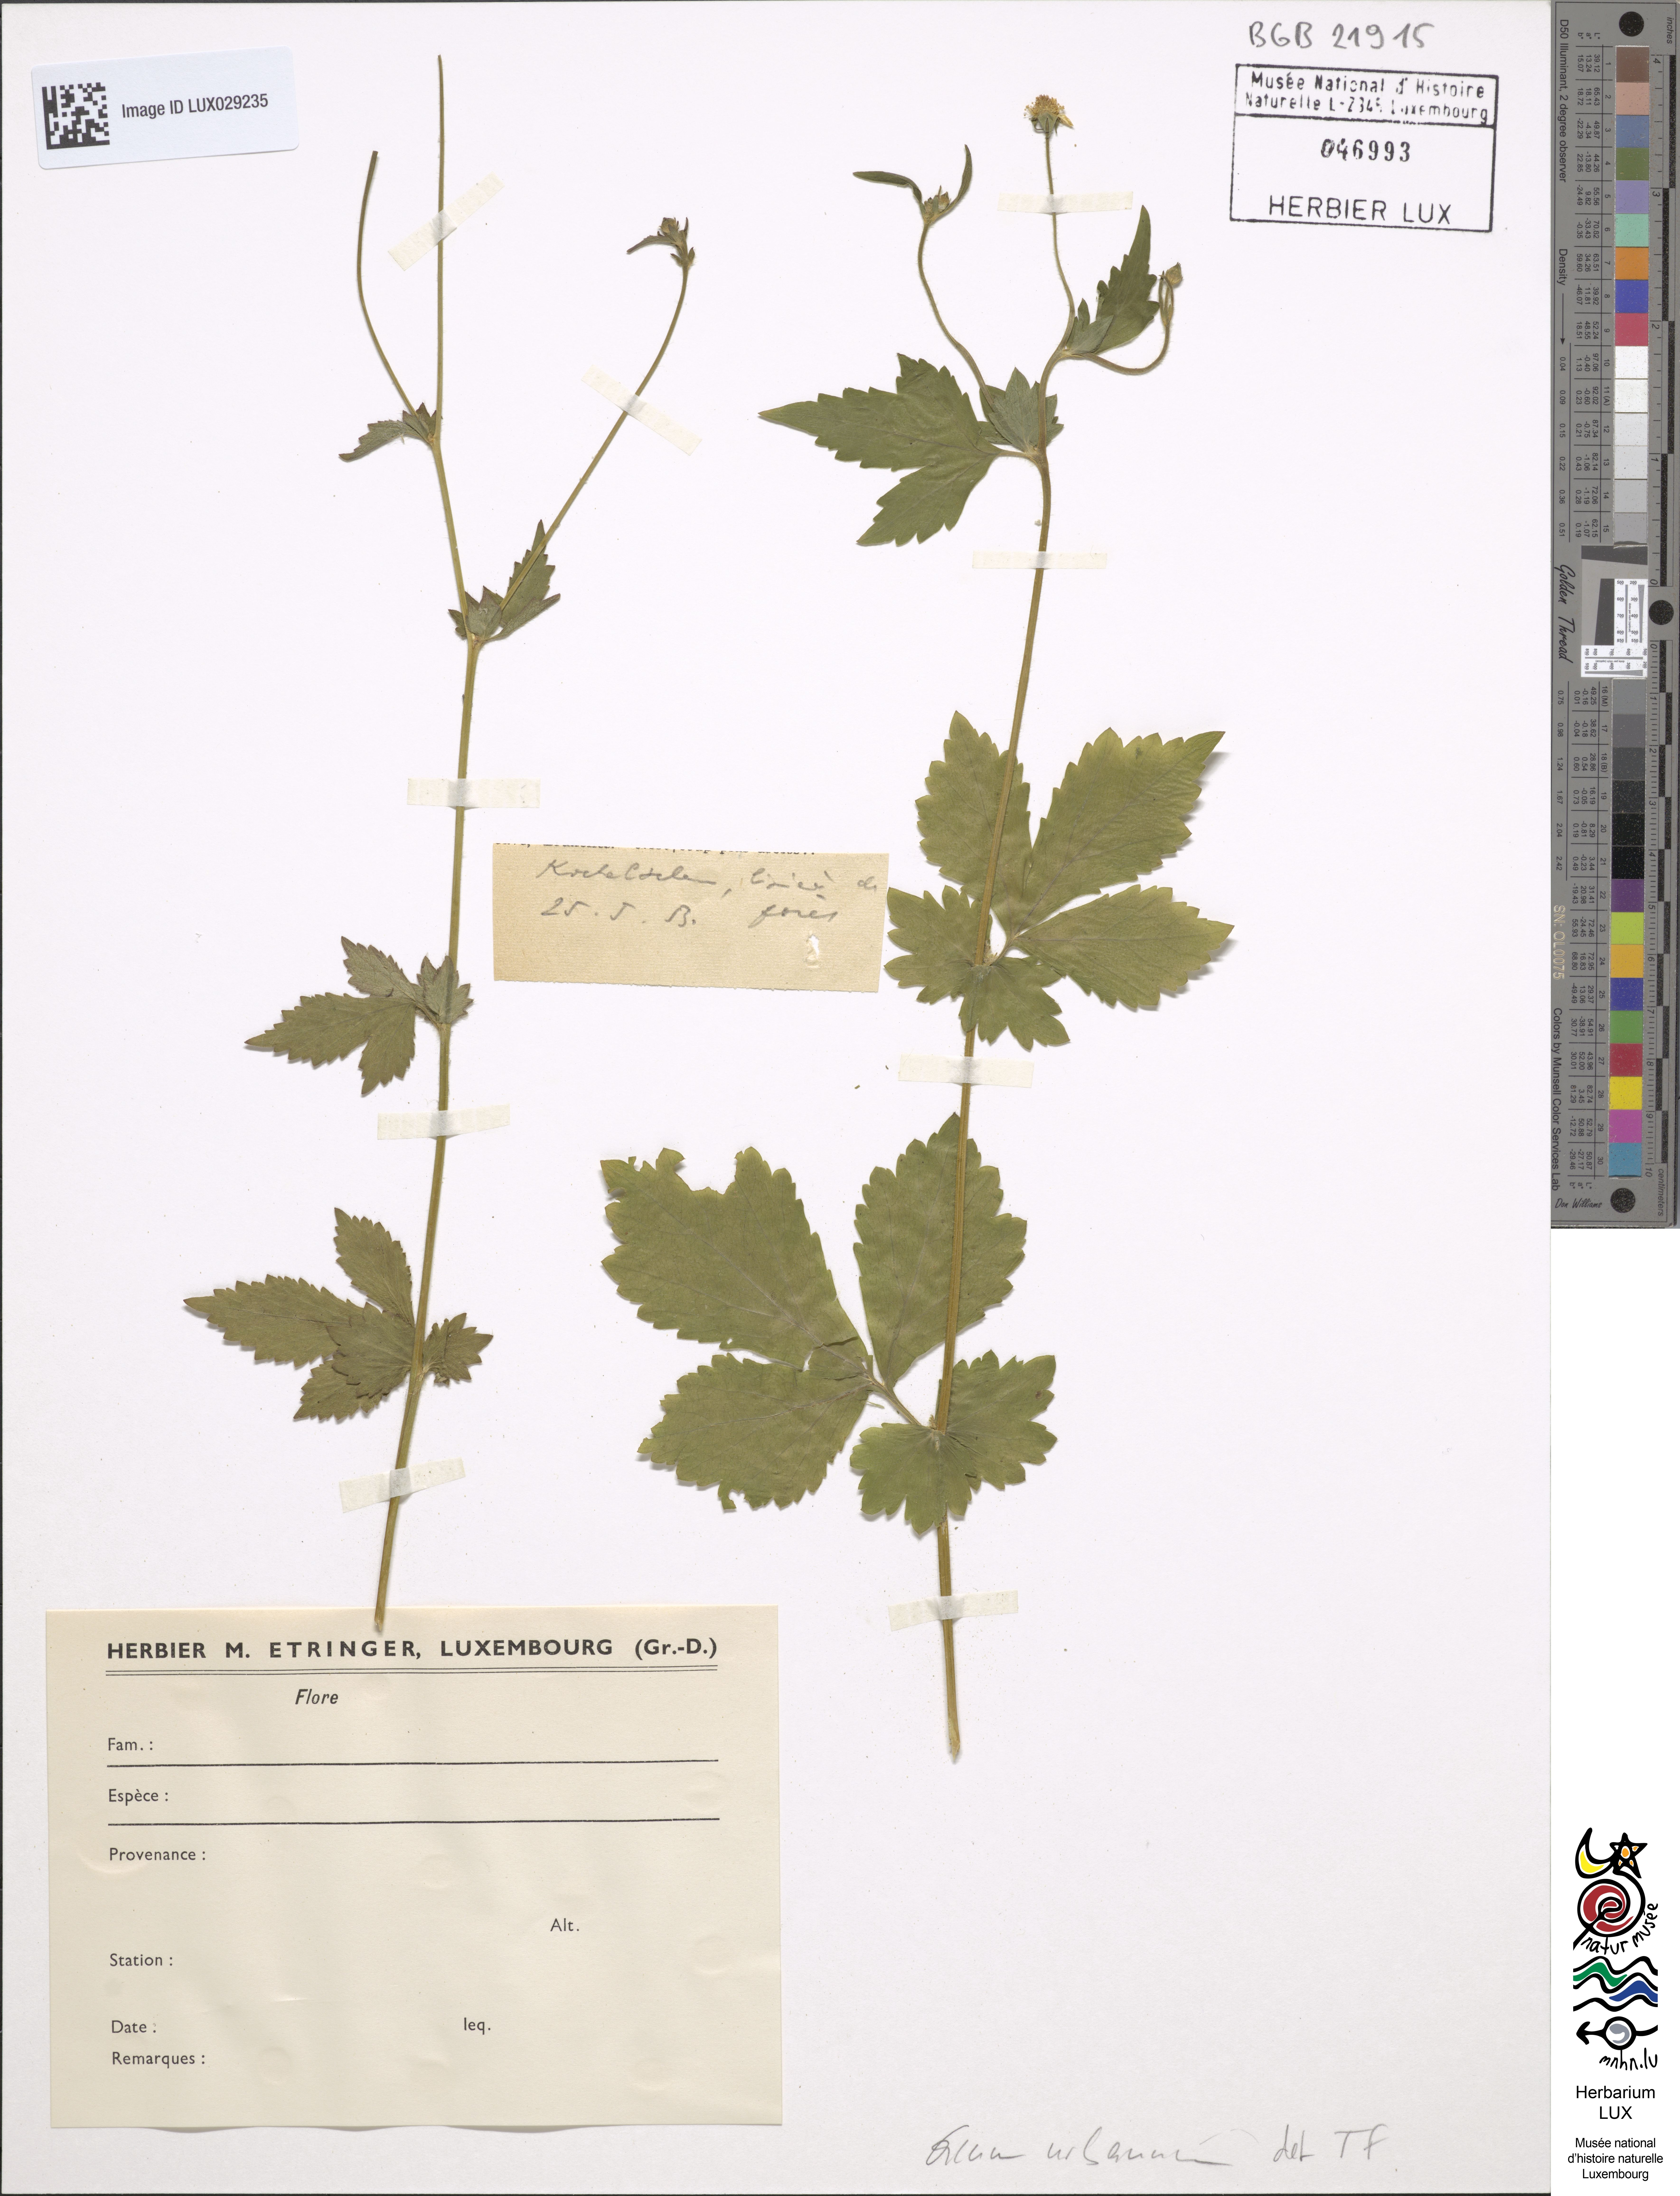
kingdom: Plantae
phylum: Tracheophyta
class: Magnoliopsida
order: Rosales
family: Rosaceae
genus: Geum
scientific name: Geum urbanum
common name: Wood avens
